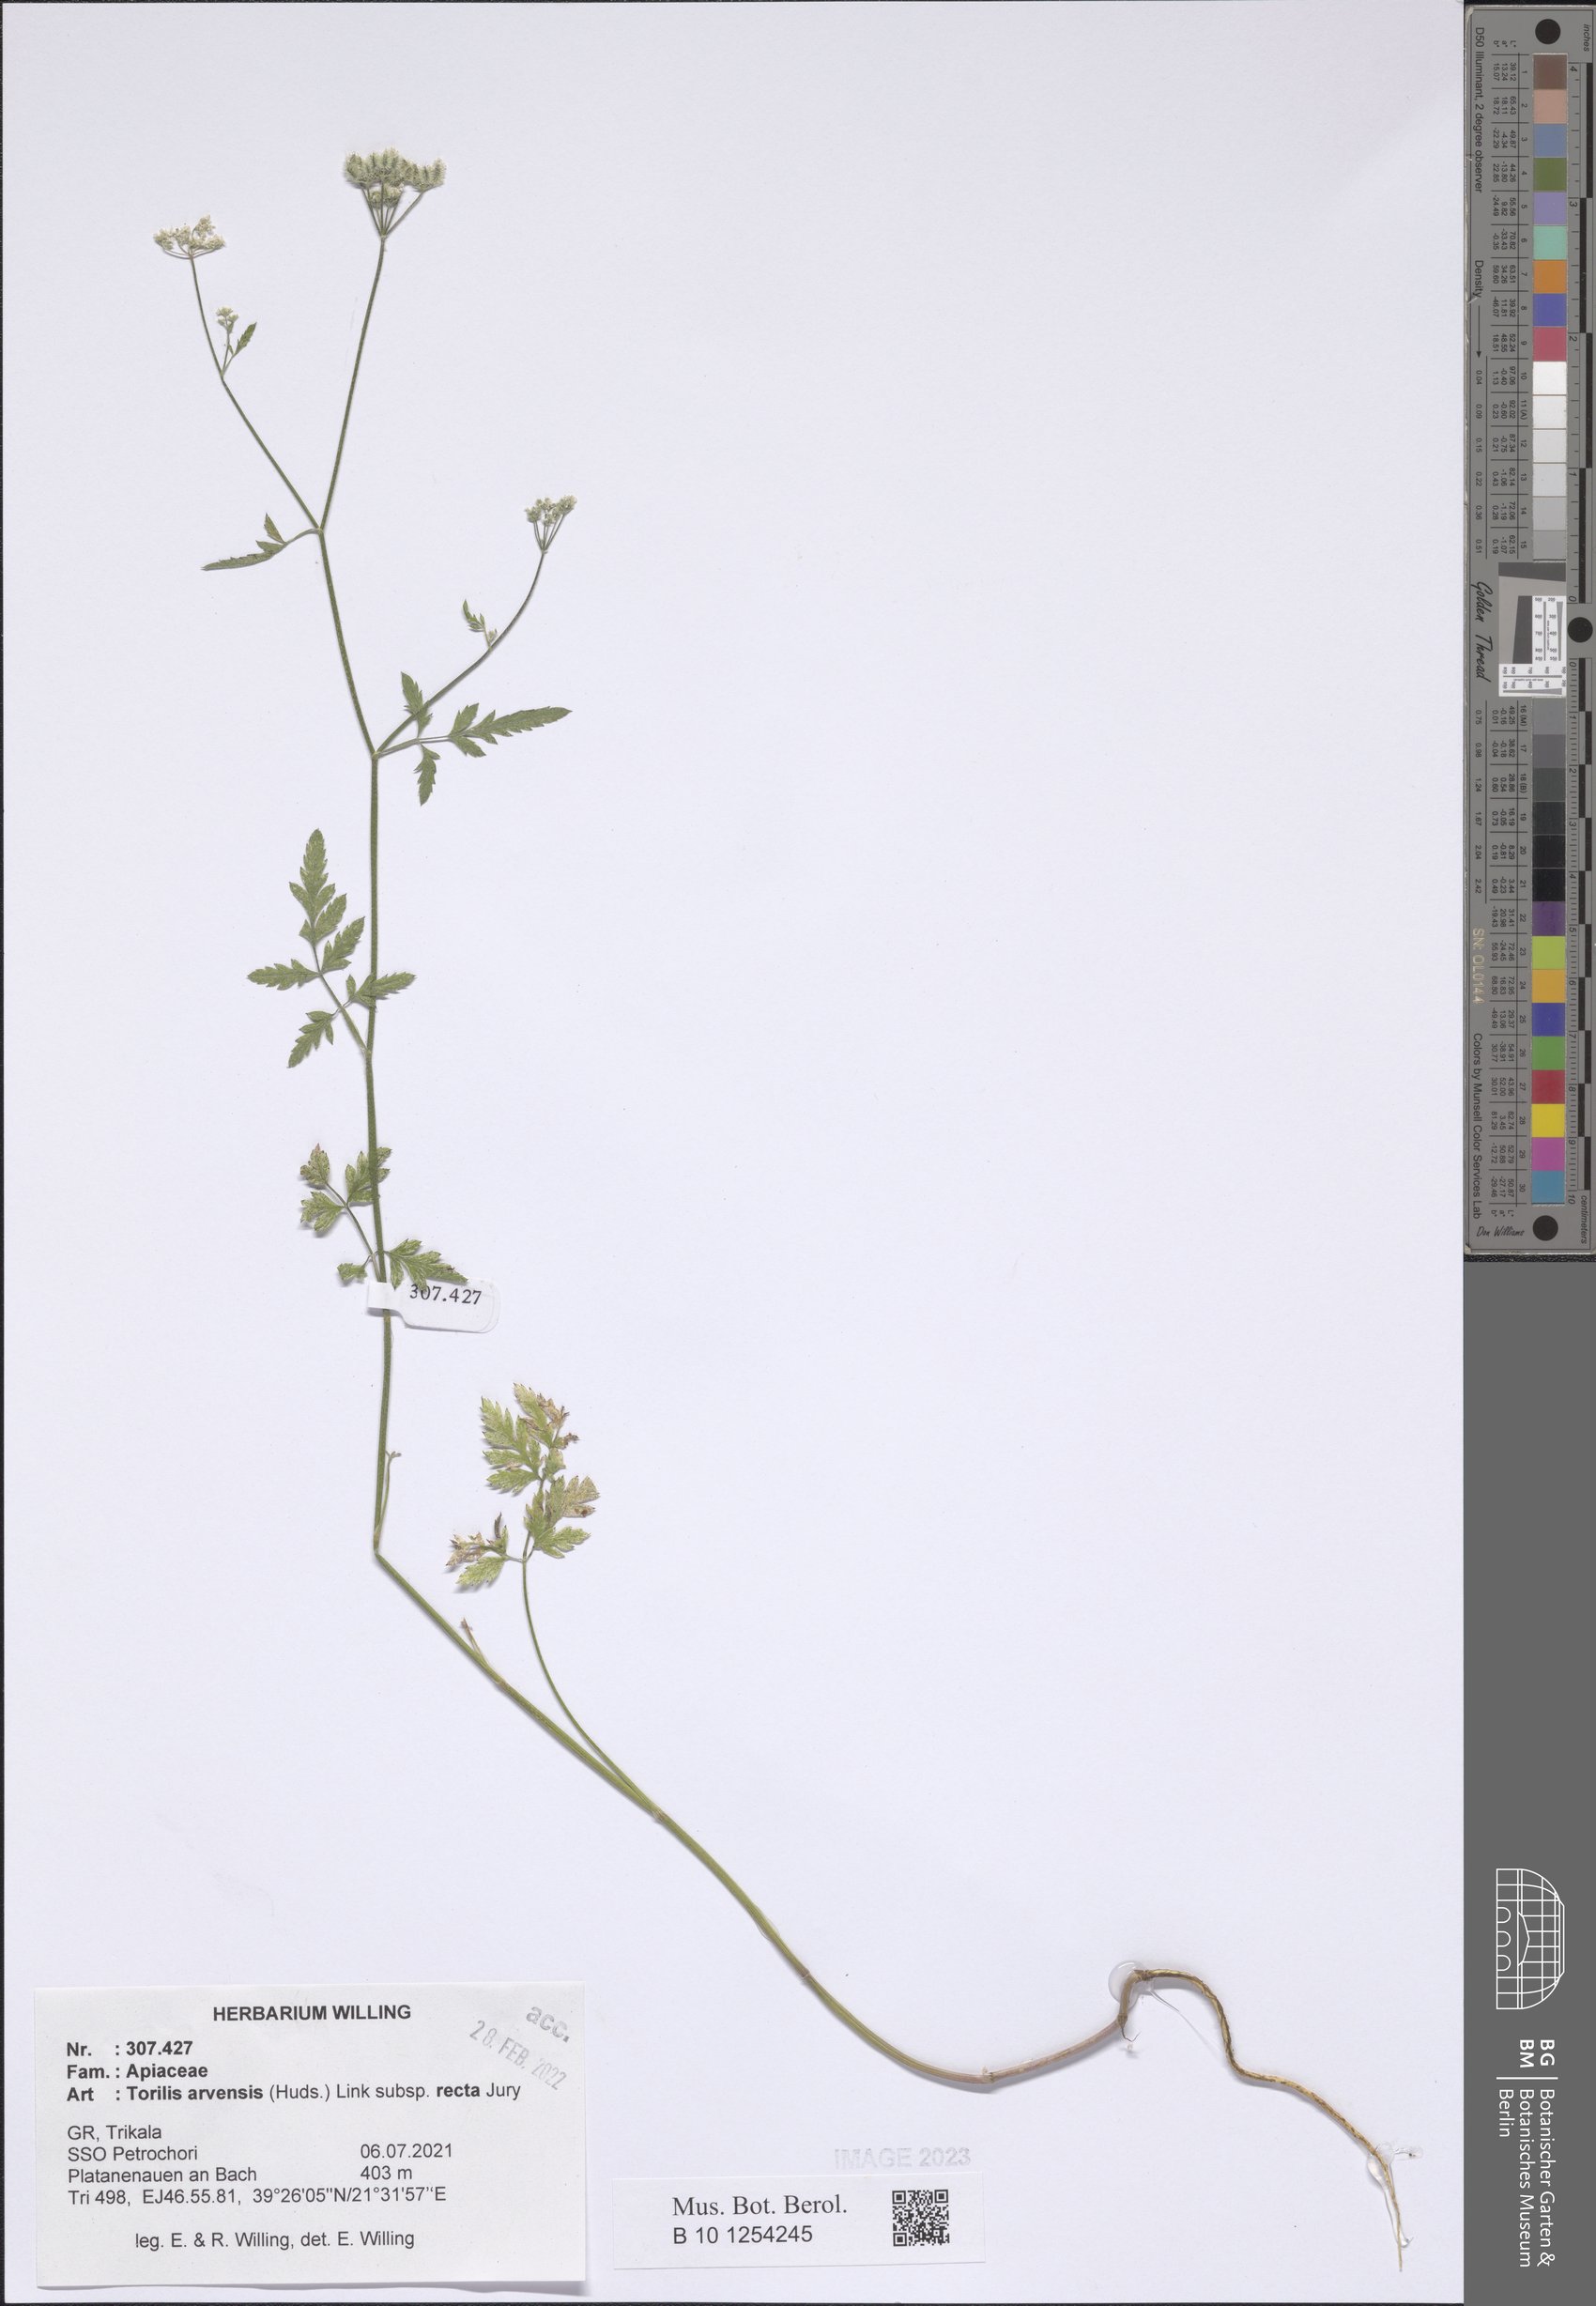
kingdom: Plantae
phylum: Tracheophyta
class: Magnoliopsida
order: Apiales
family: Apiaceae
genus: Torilis
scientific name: Torilis arvensis
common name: Spreading hedge-parsley
